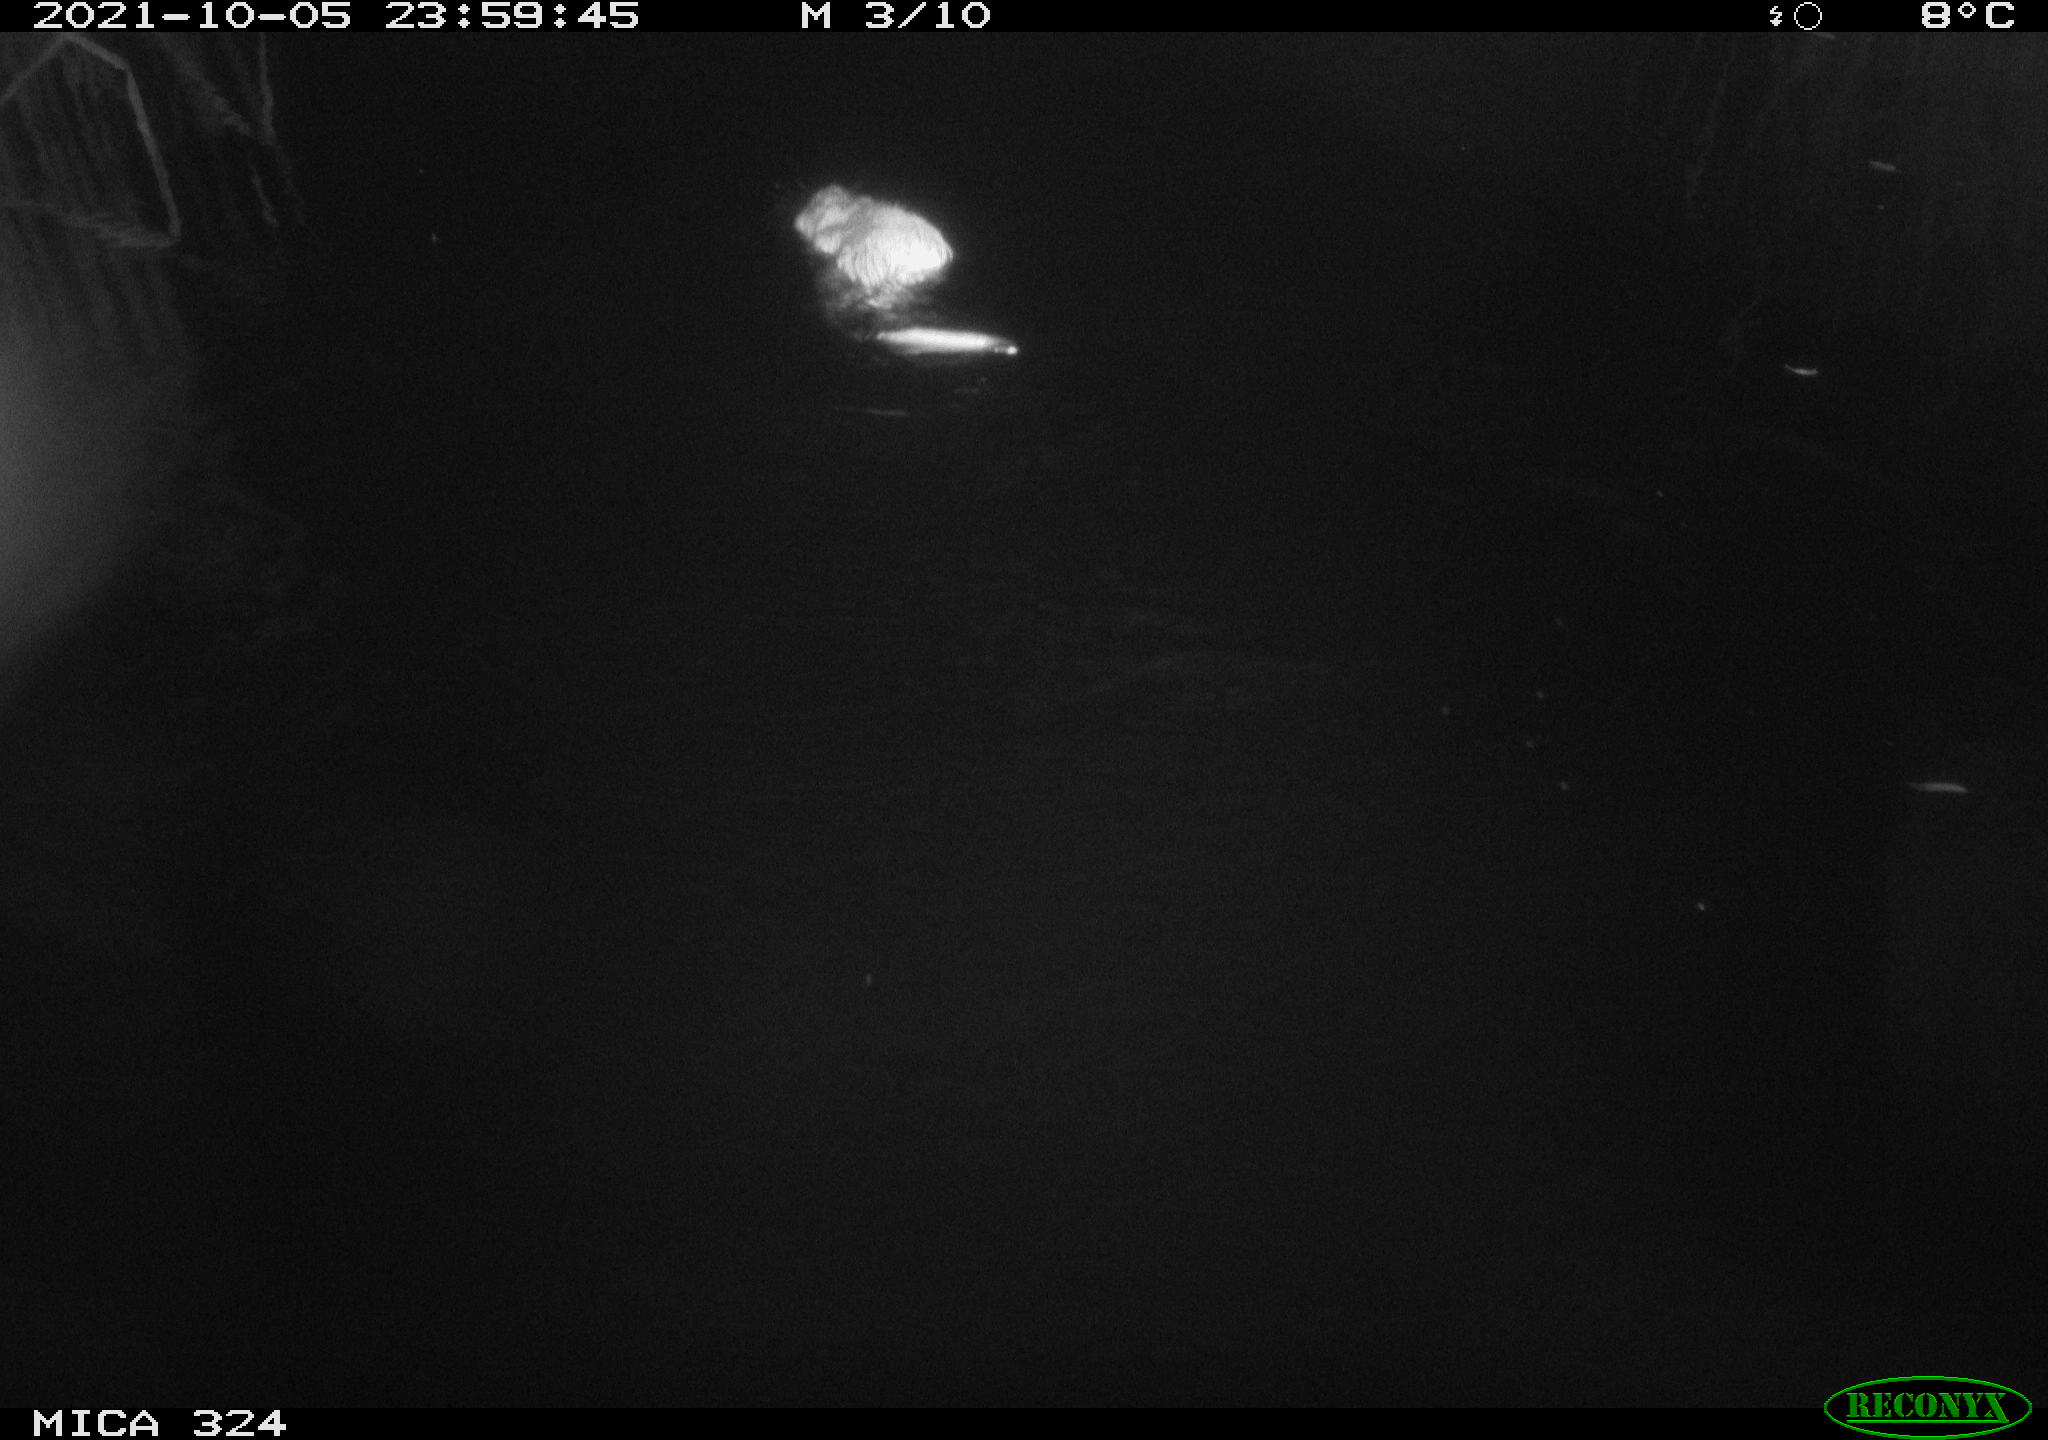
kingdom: Animalia
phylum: Chordata
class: Mammalia
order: Rodentia
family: Cricetidae
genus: Ondatra
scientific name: Ondatra zibethicus
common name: Muskrat
